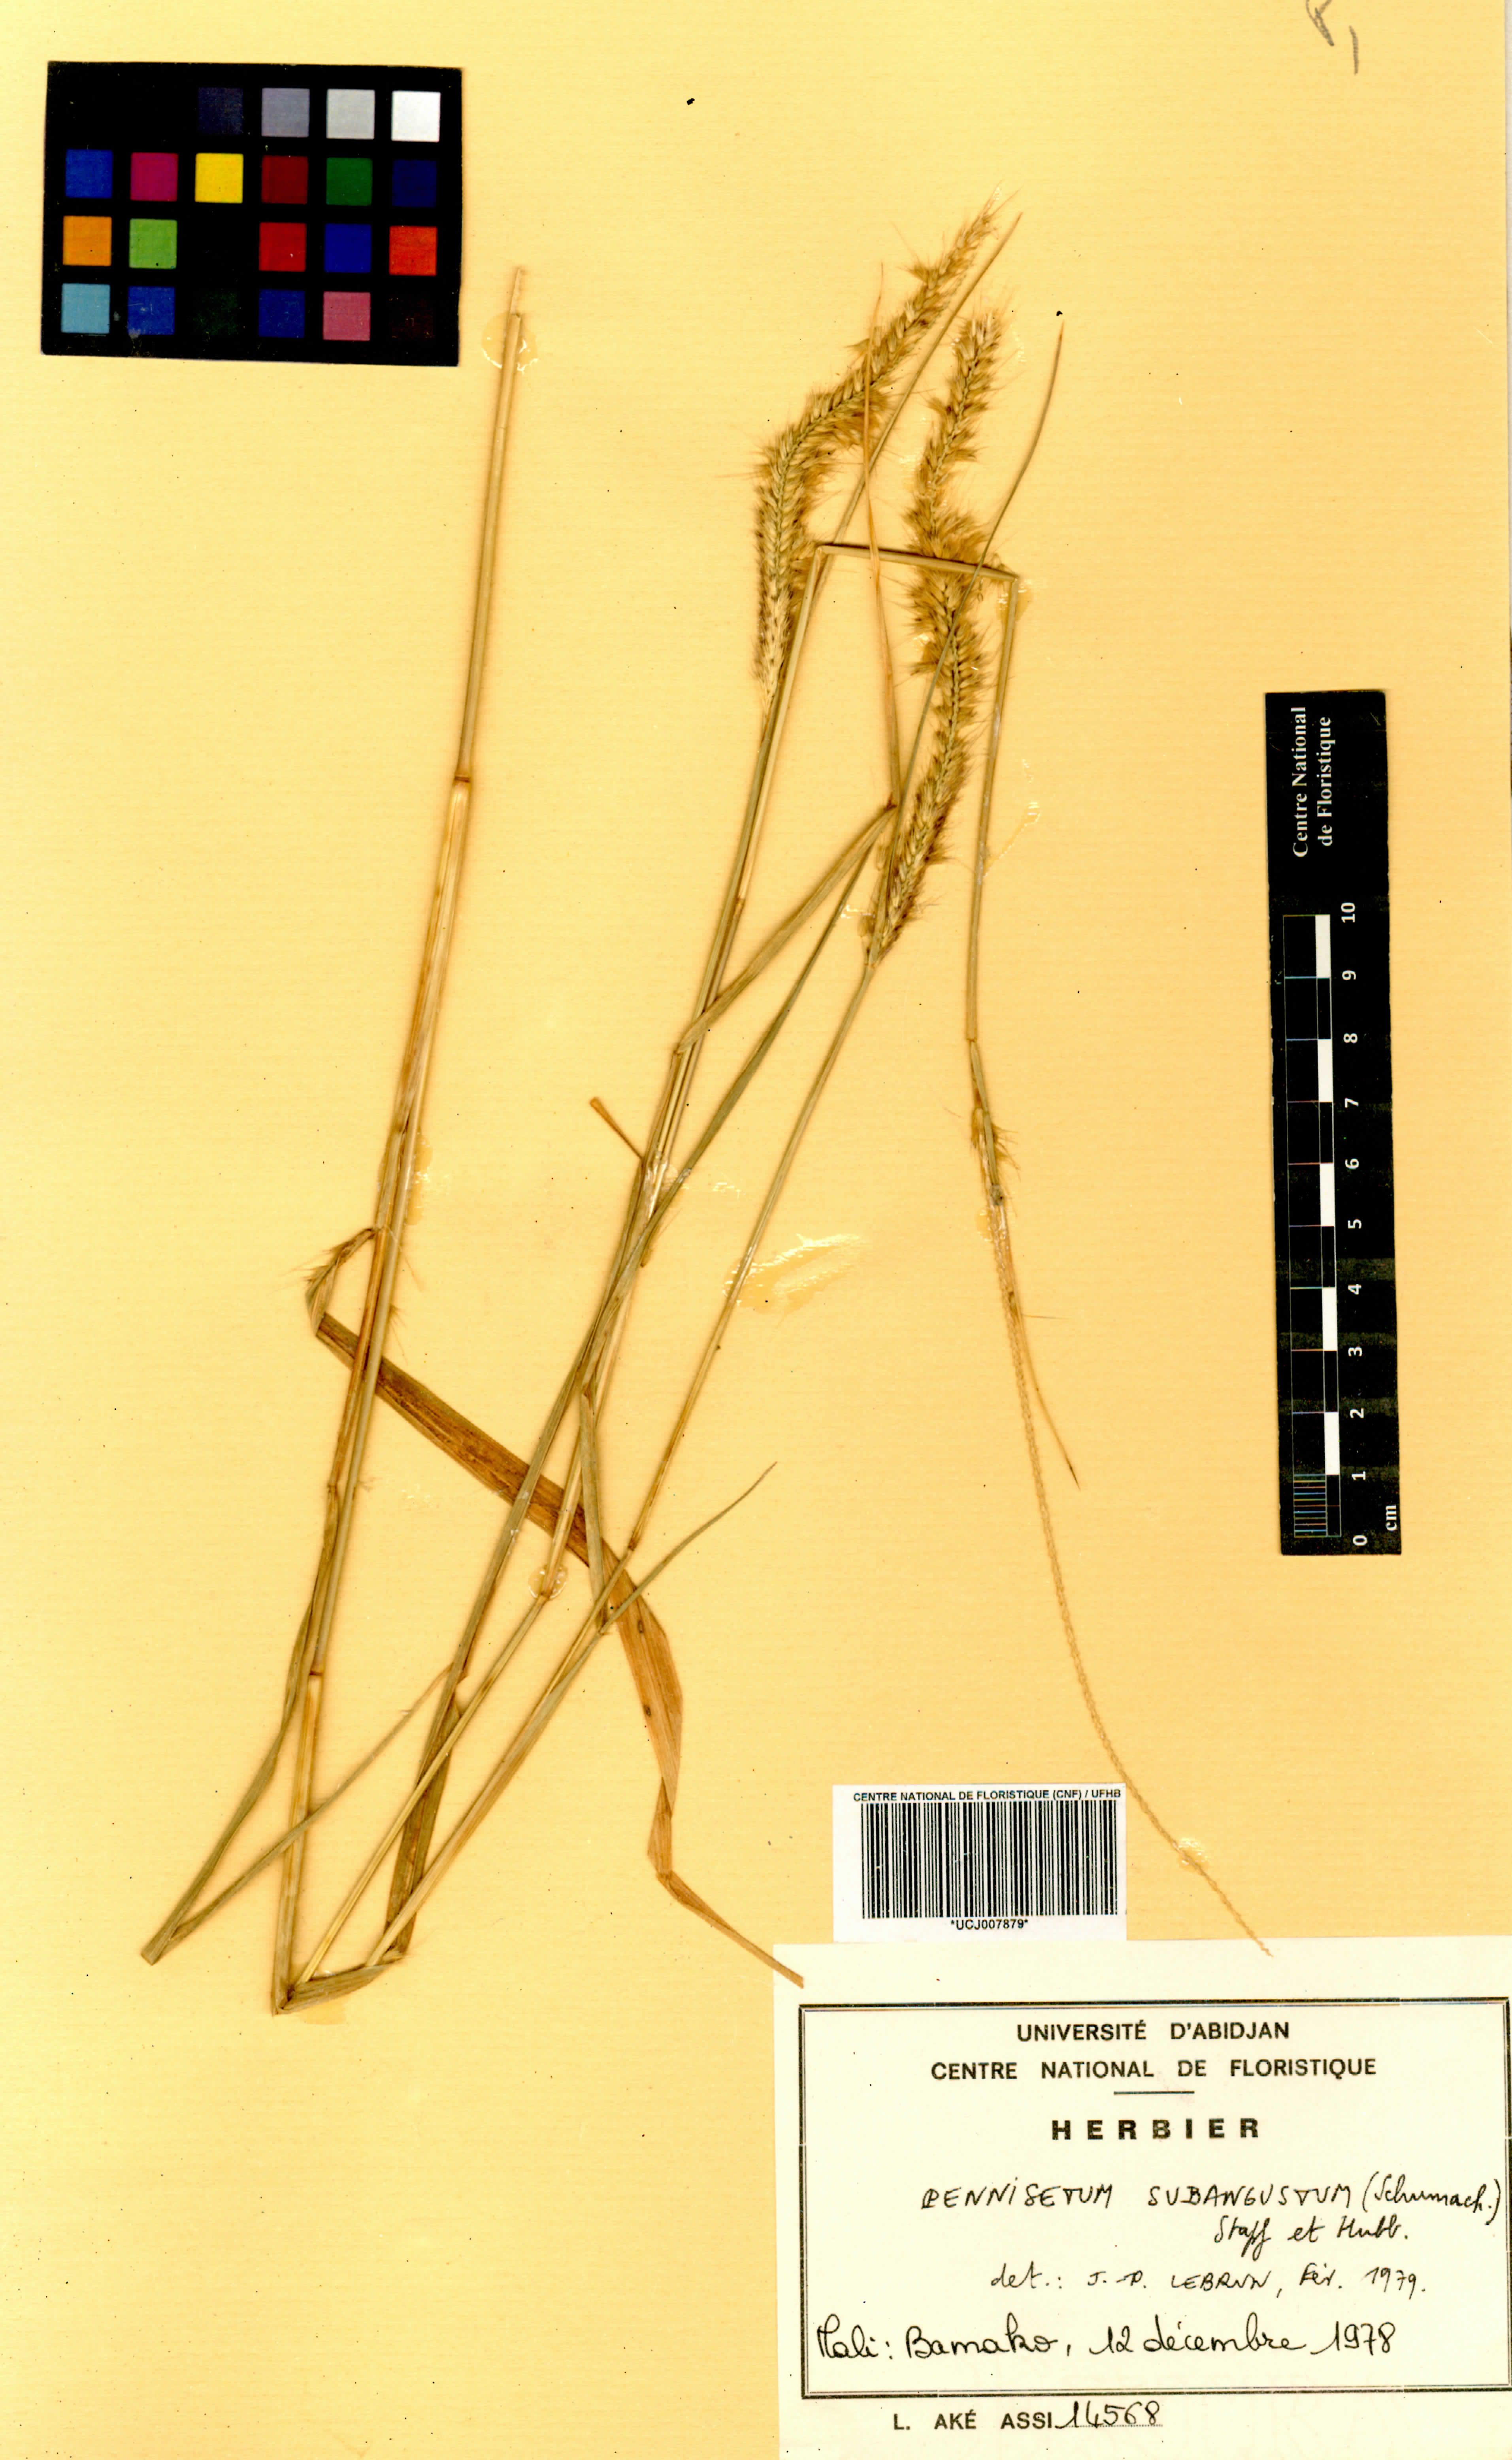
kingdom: Plantae
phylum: Tracheophyta
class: Liliopsida
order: Poales
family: Poaceae
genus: Cenchrus
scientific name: Cenchrus setosus
